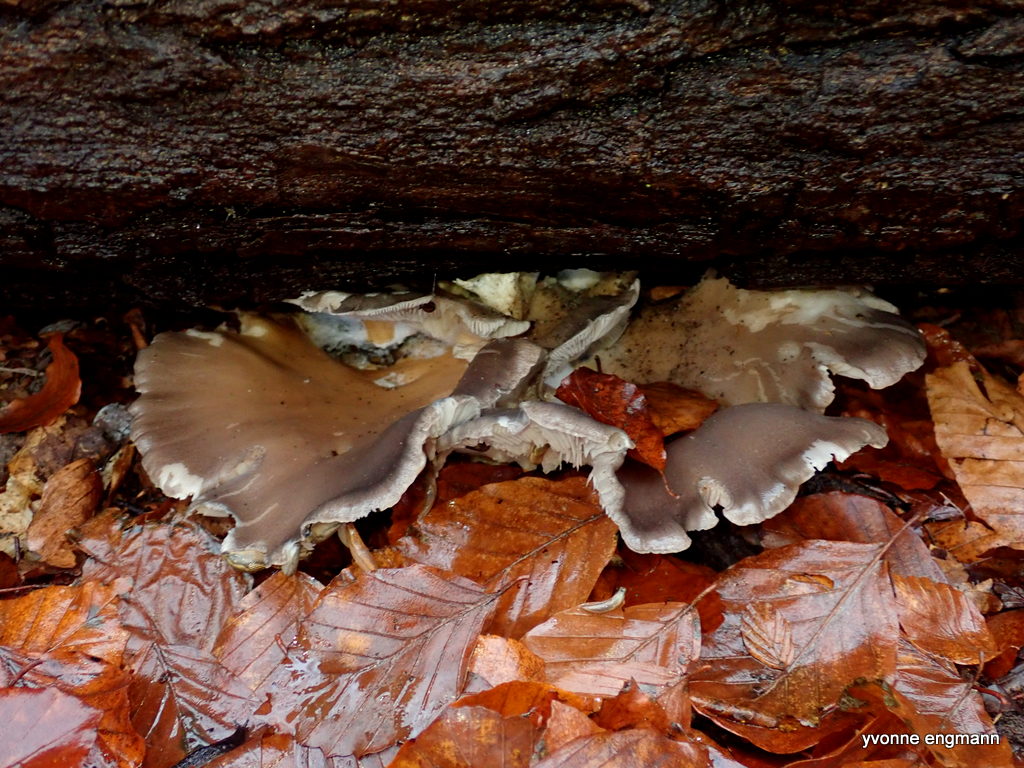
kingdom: Fungi
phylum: Basidiomycota
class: Agaricomycetes
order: Agaricales
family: Pleurotaceae
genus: Pleurotus
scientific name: Pleurotus ostreatus
